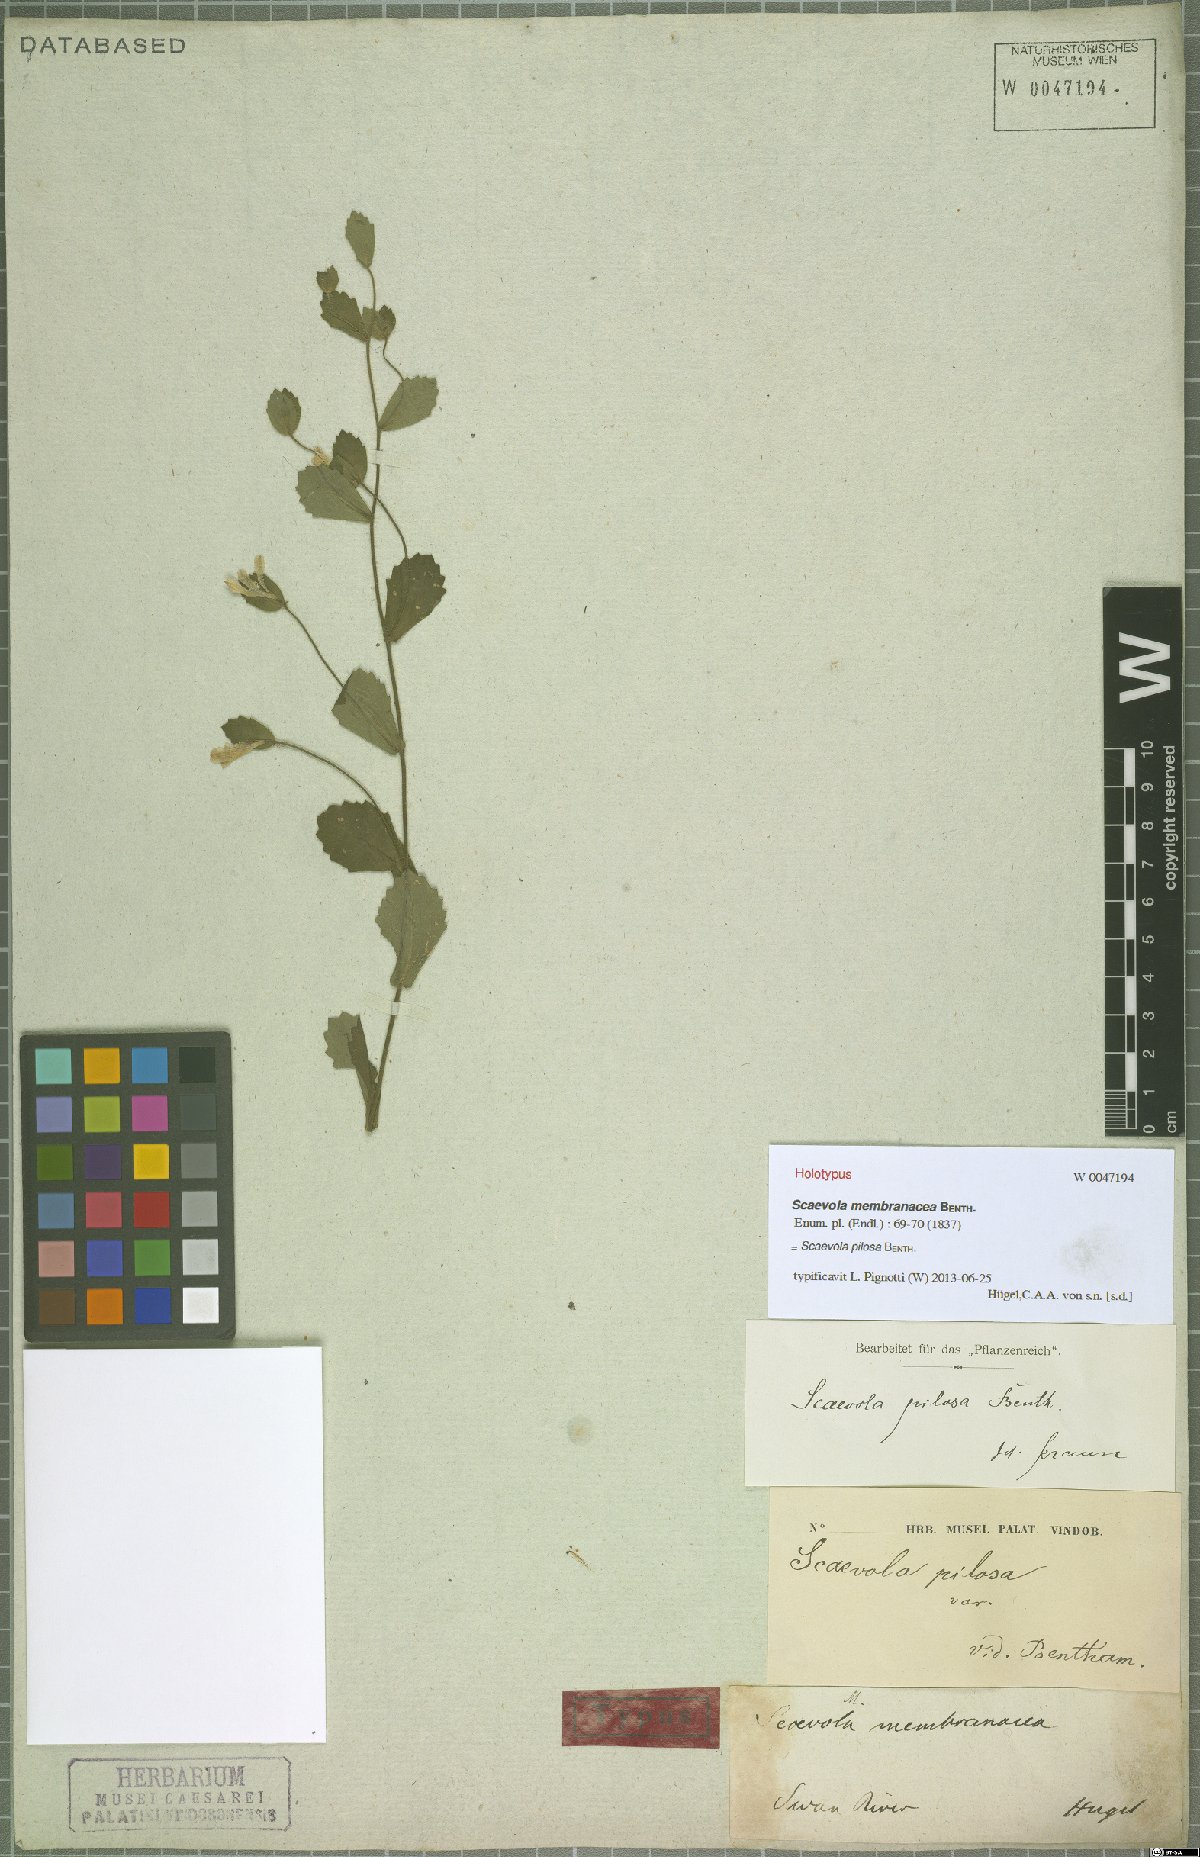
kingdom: Plantae
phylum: Tracheophyta
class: Magnoliopsida
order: Asterales
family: Goodeniaceae
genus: Scaevola
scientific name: Scaevola pilosa
